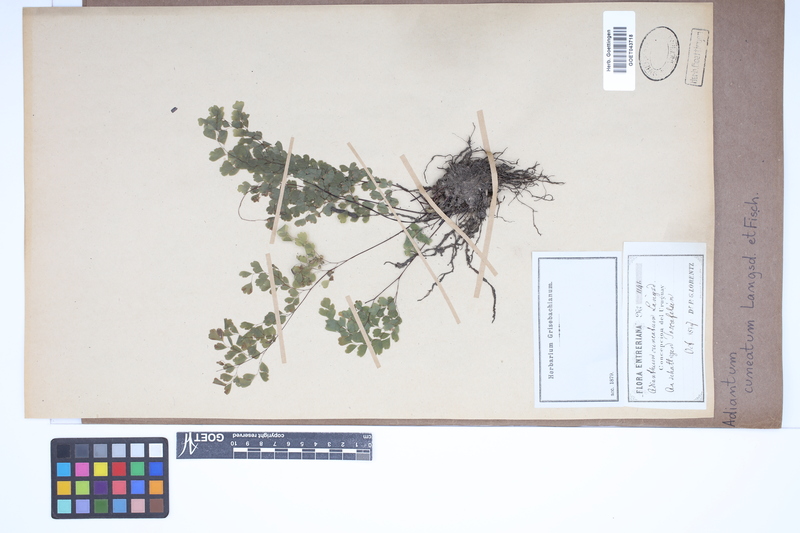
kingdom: Plantae
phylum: Tracheophyta
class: Polypodiopsida
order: Polypodiales
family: Pteridaceae
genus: Adiantum
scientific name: Adiantum raddianum
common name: Delta maidenhair fern
